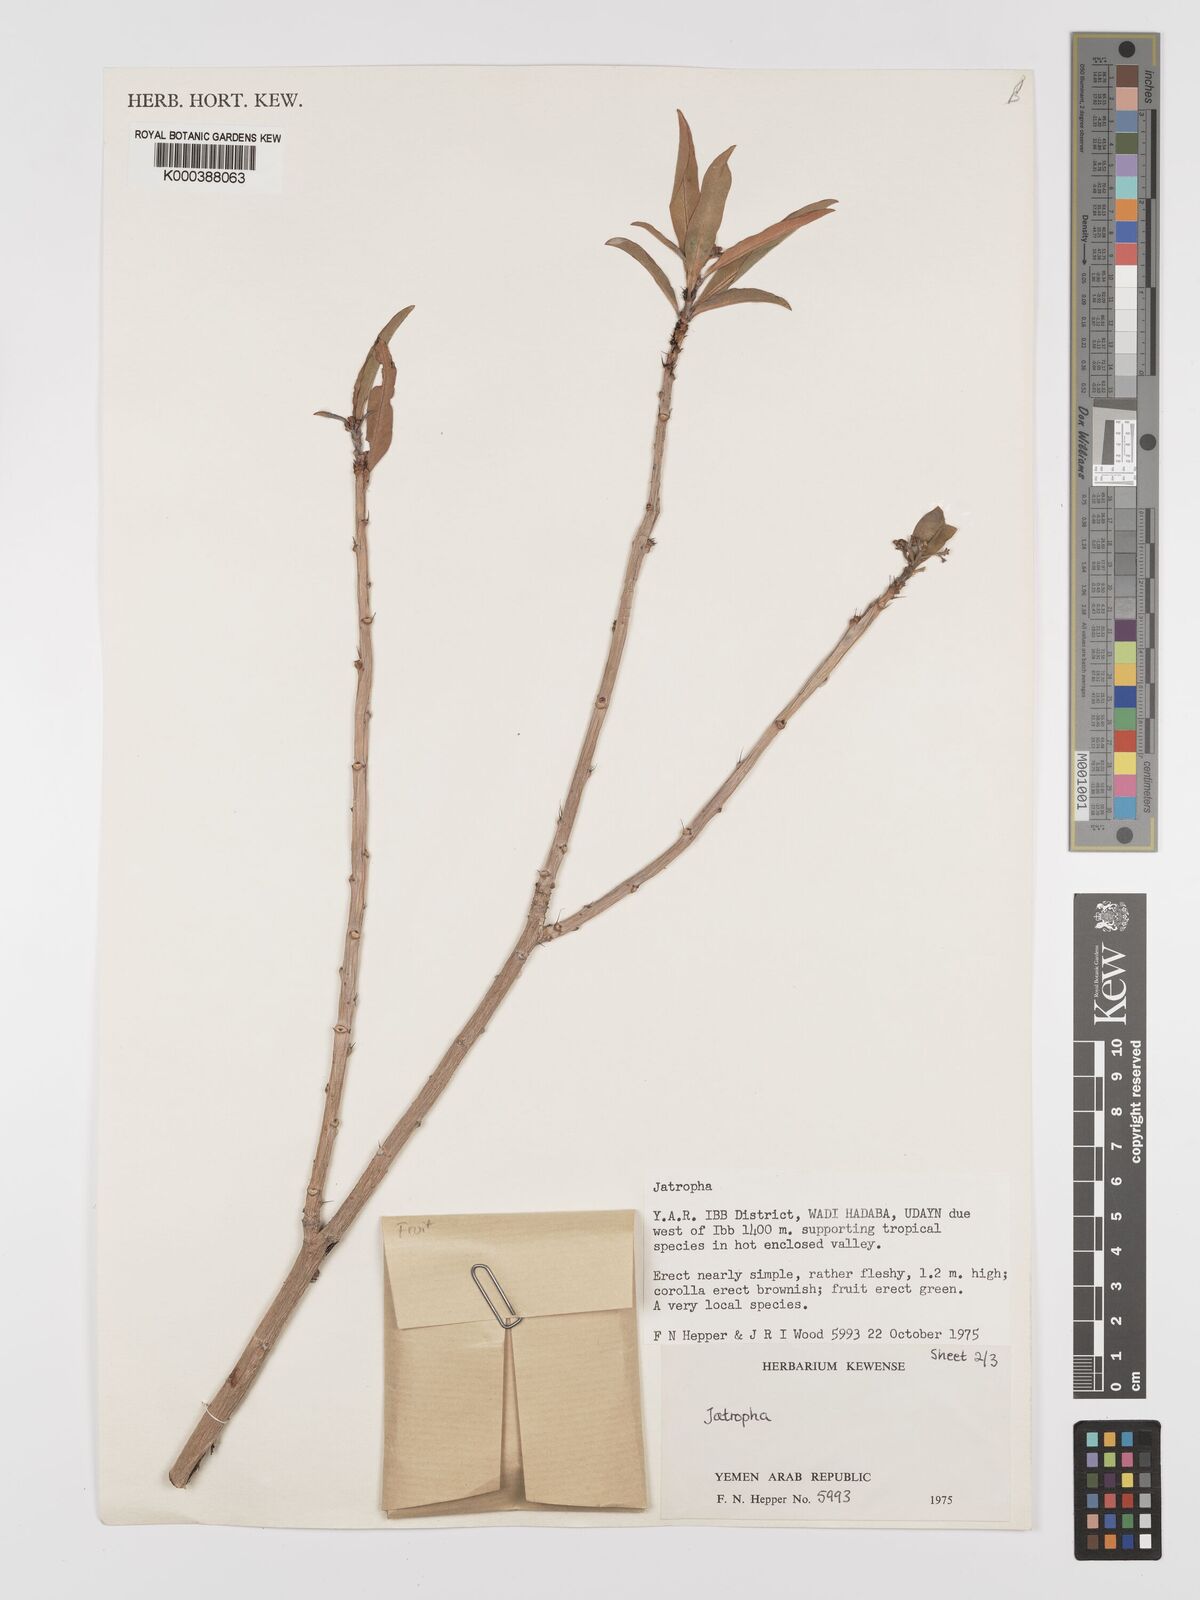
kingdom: Plantae
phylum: Tracheophyta
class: Magnoliopsida
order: Malpighiales
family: Euphorbiaceae
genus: Jatropha
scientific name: Jatropha variegata
